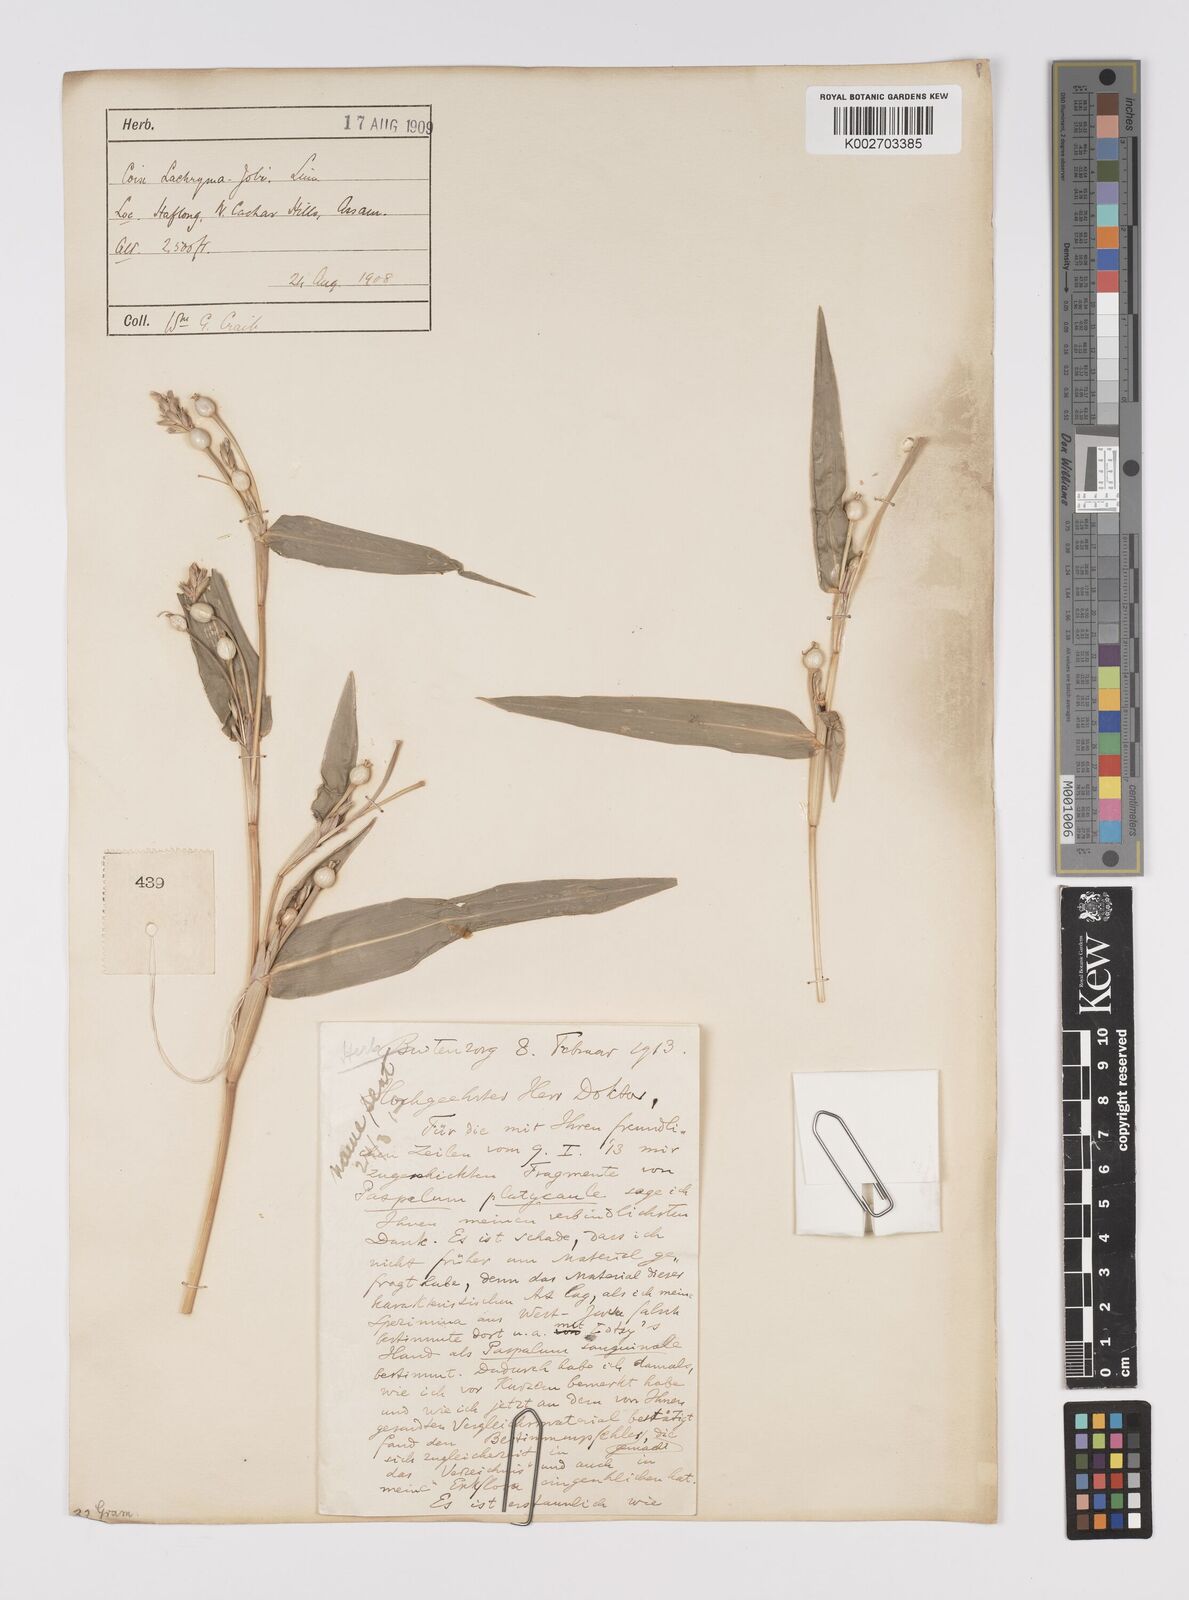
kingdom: Plantae
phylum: Tracheophyta
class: Liliopsida
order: Poales
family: Poaceae
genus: Coix
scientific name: Coix lacryma-jobi
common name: Job's tears
